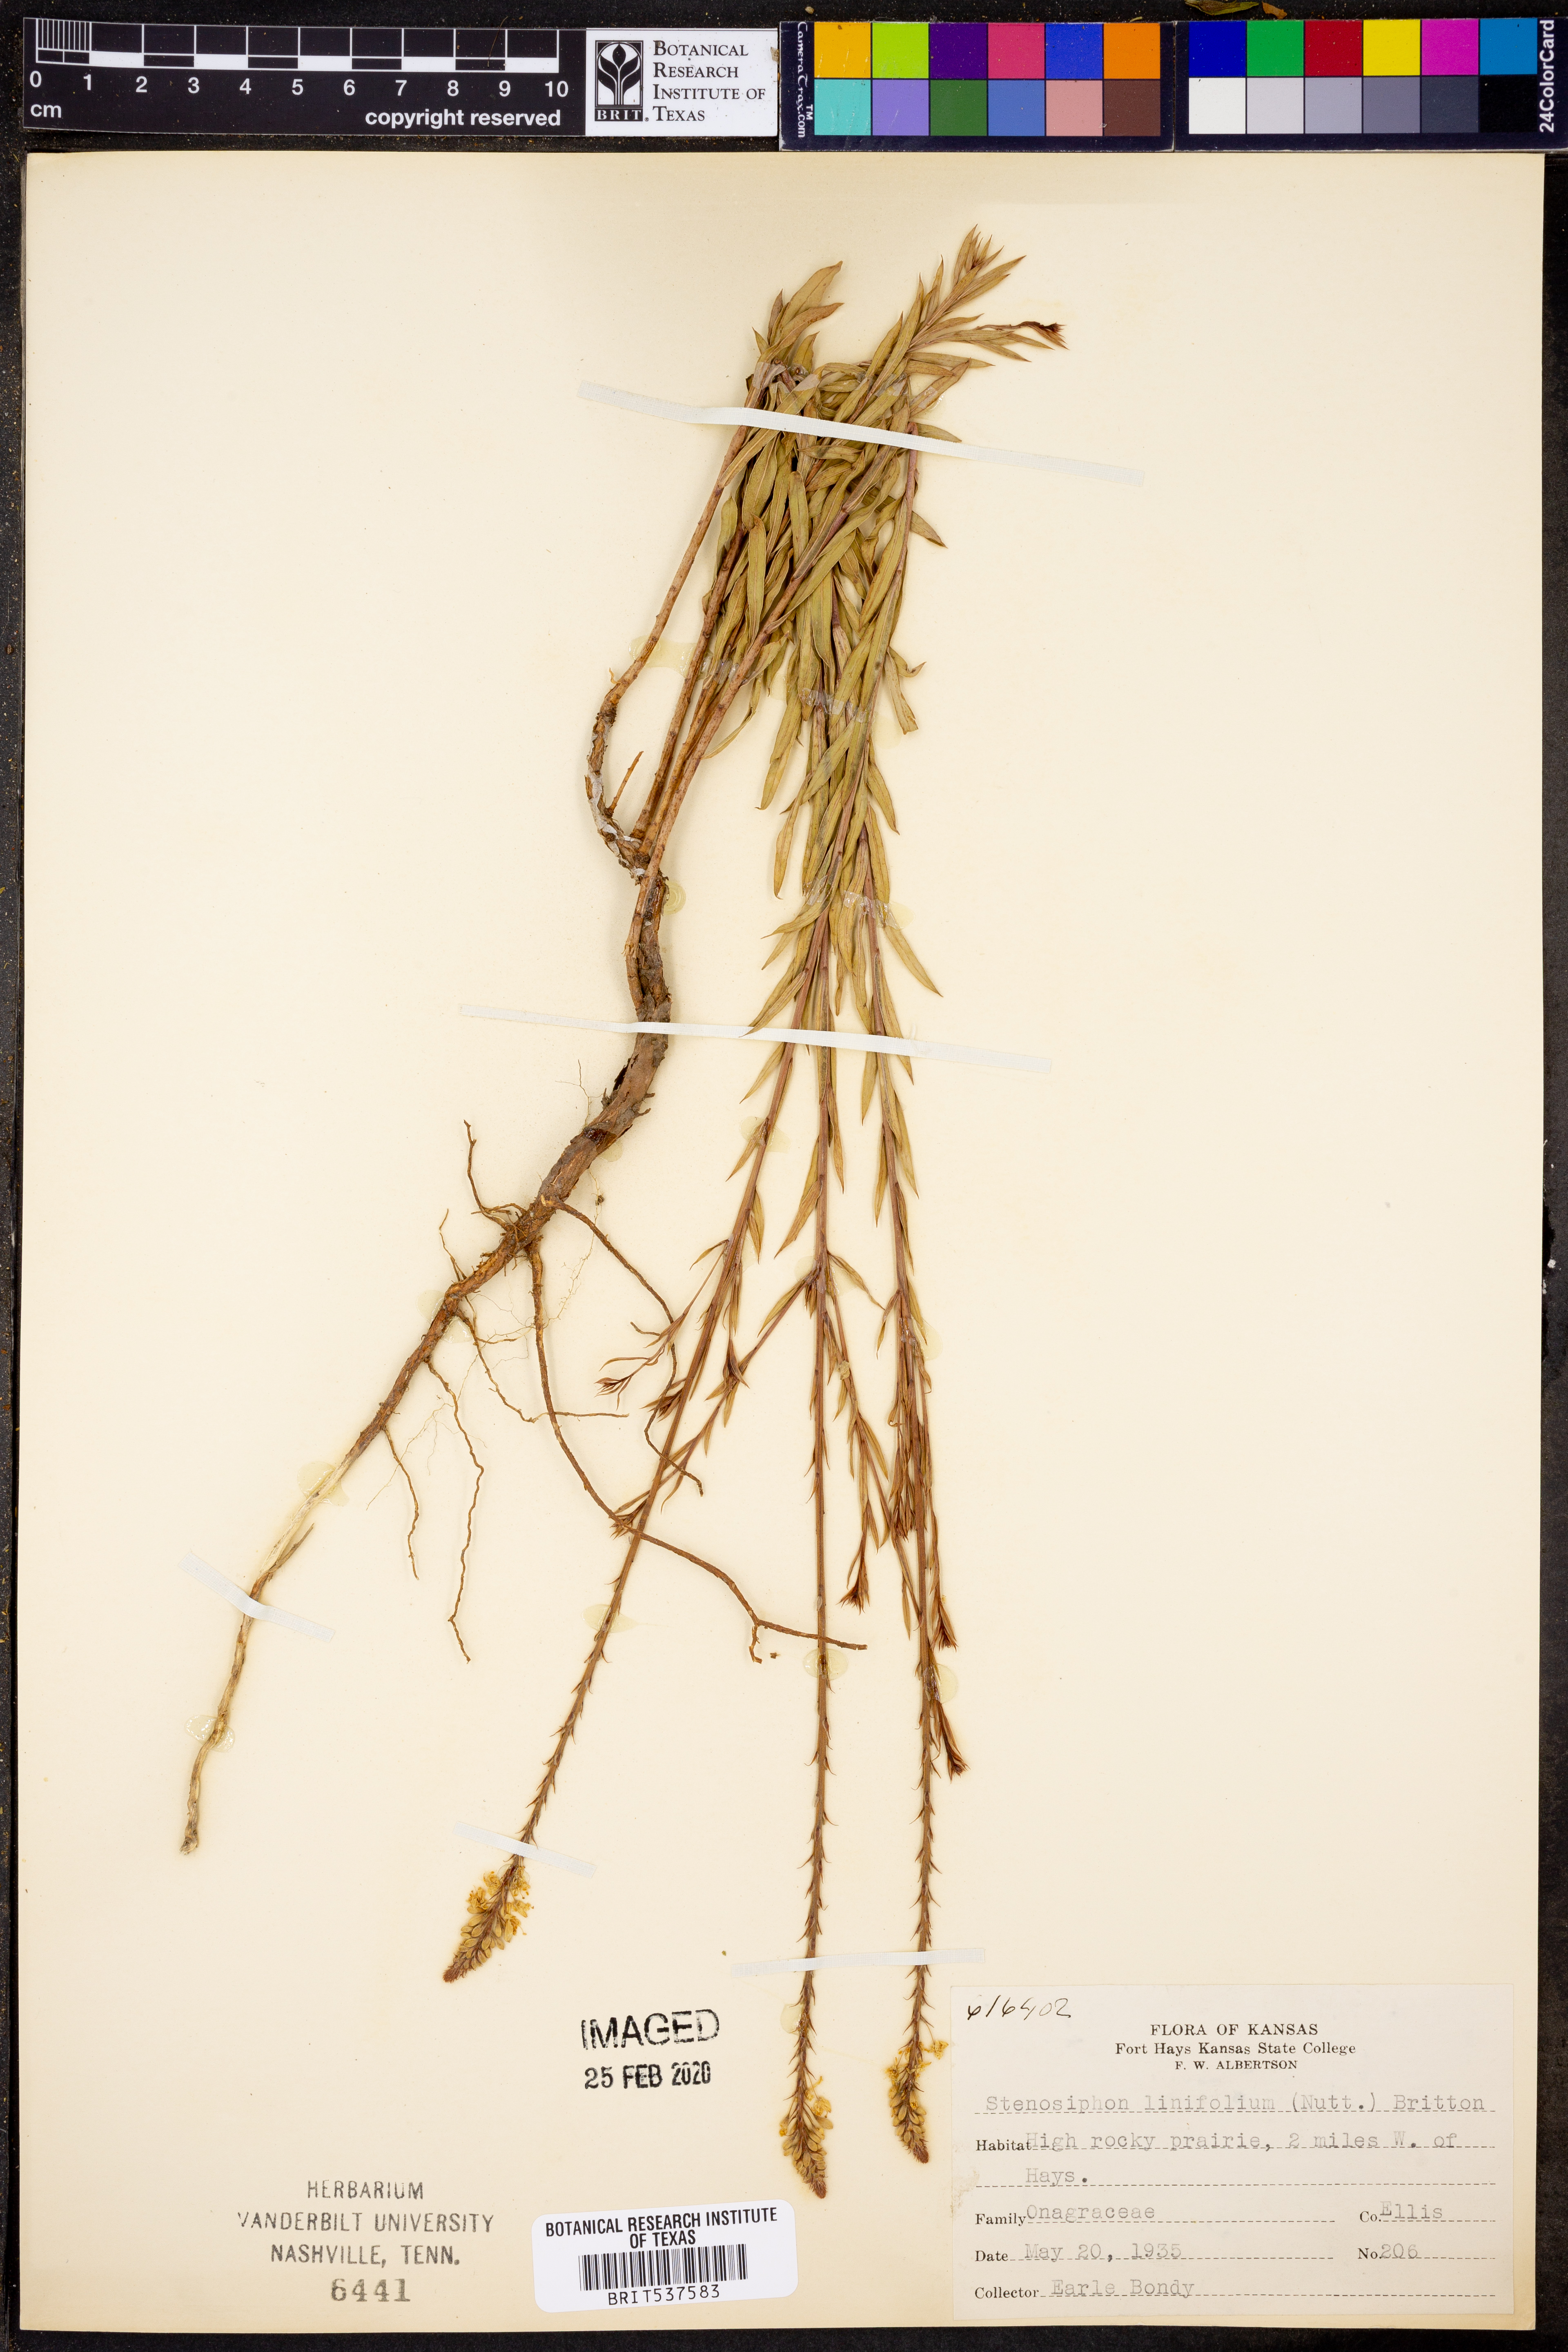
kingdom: Plantae
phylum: Tracheophyta
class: Magnoliopsida
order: Myrtales
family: Onagraceae
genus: Oenothera
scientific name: Oenothera glaucifolia
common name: False gaura
